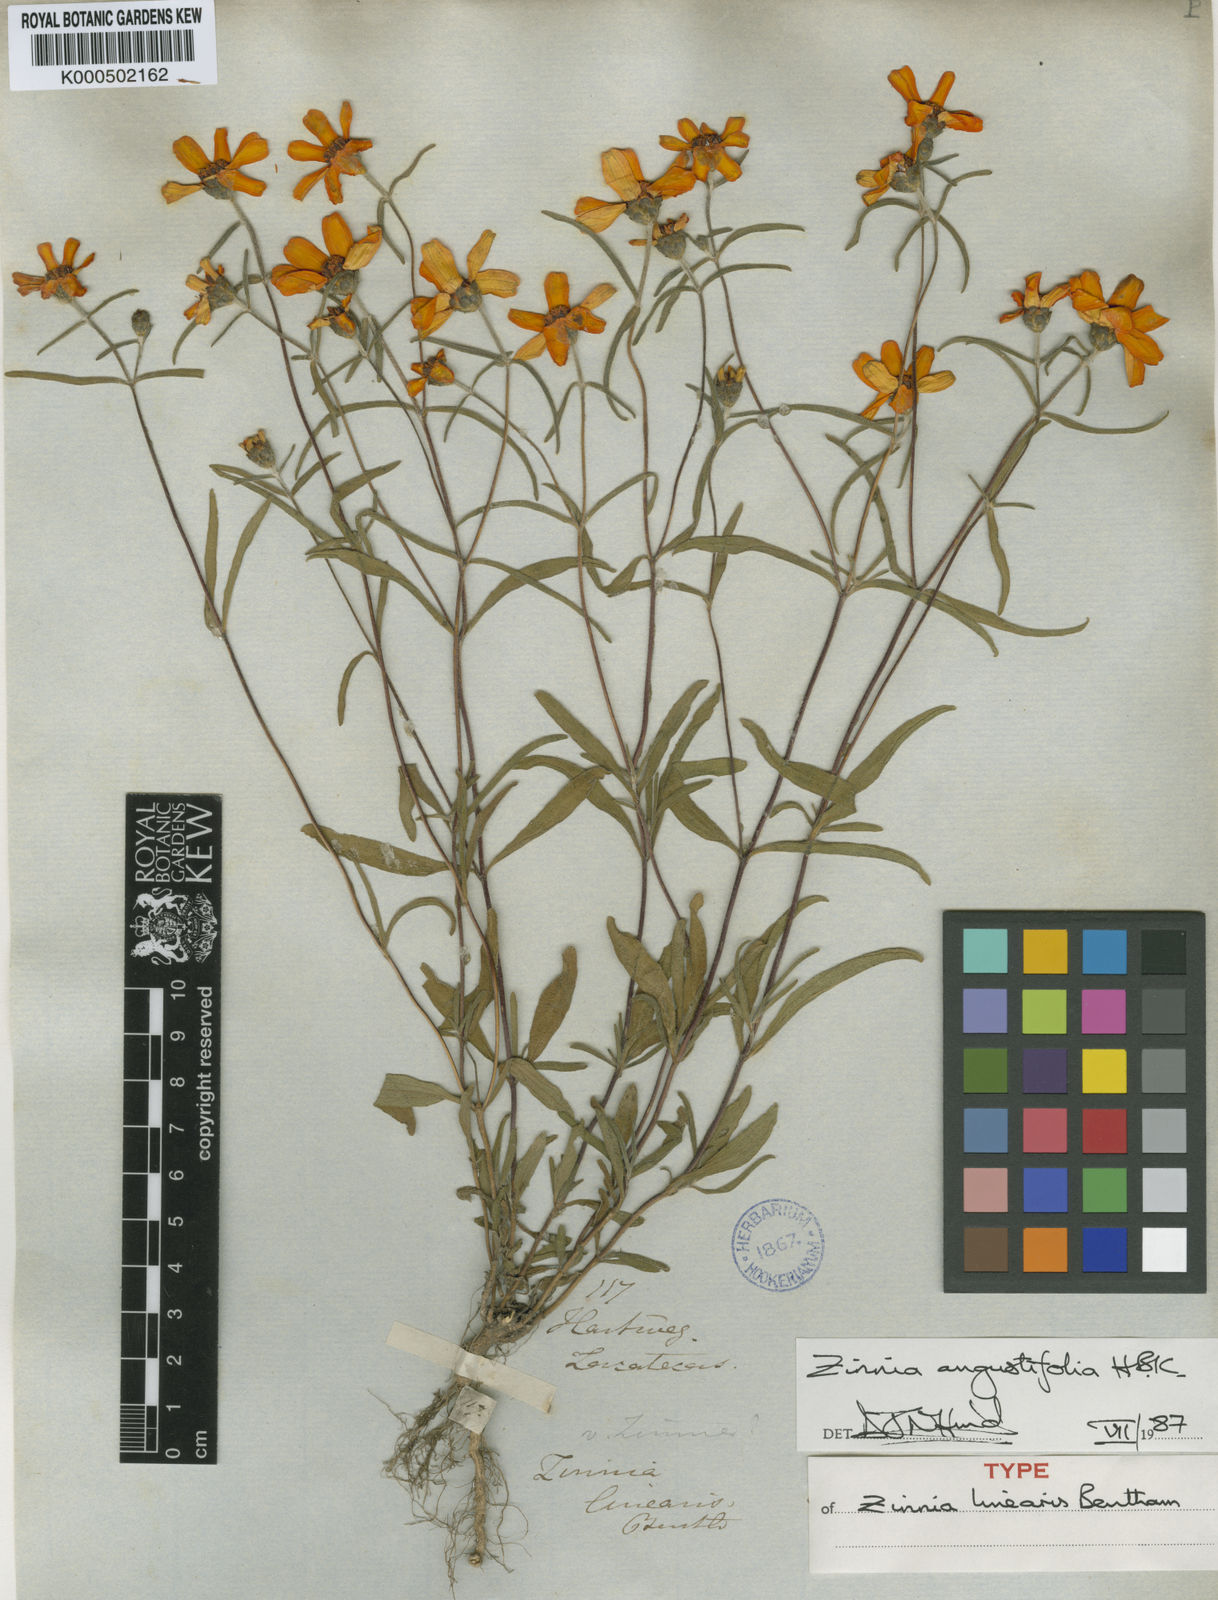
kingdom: Plantae
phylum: Tracheophyta
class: Magnoliopsida
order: Asterales
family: Asteraceae
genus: Zinnia
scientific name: Zinnia angustifolia
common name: Narrowleaf zinnia
